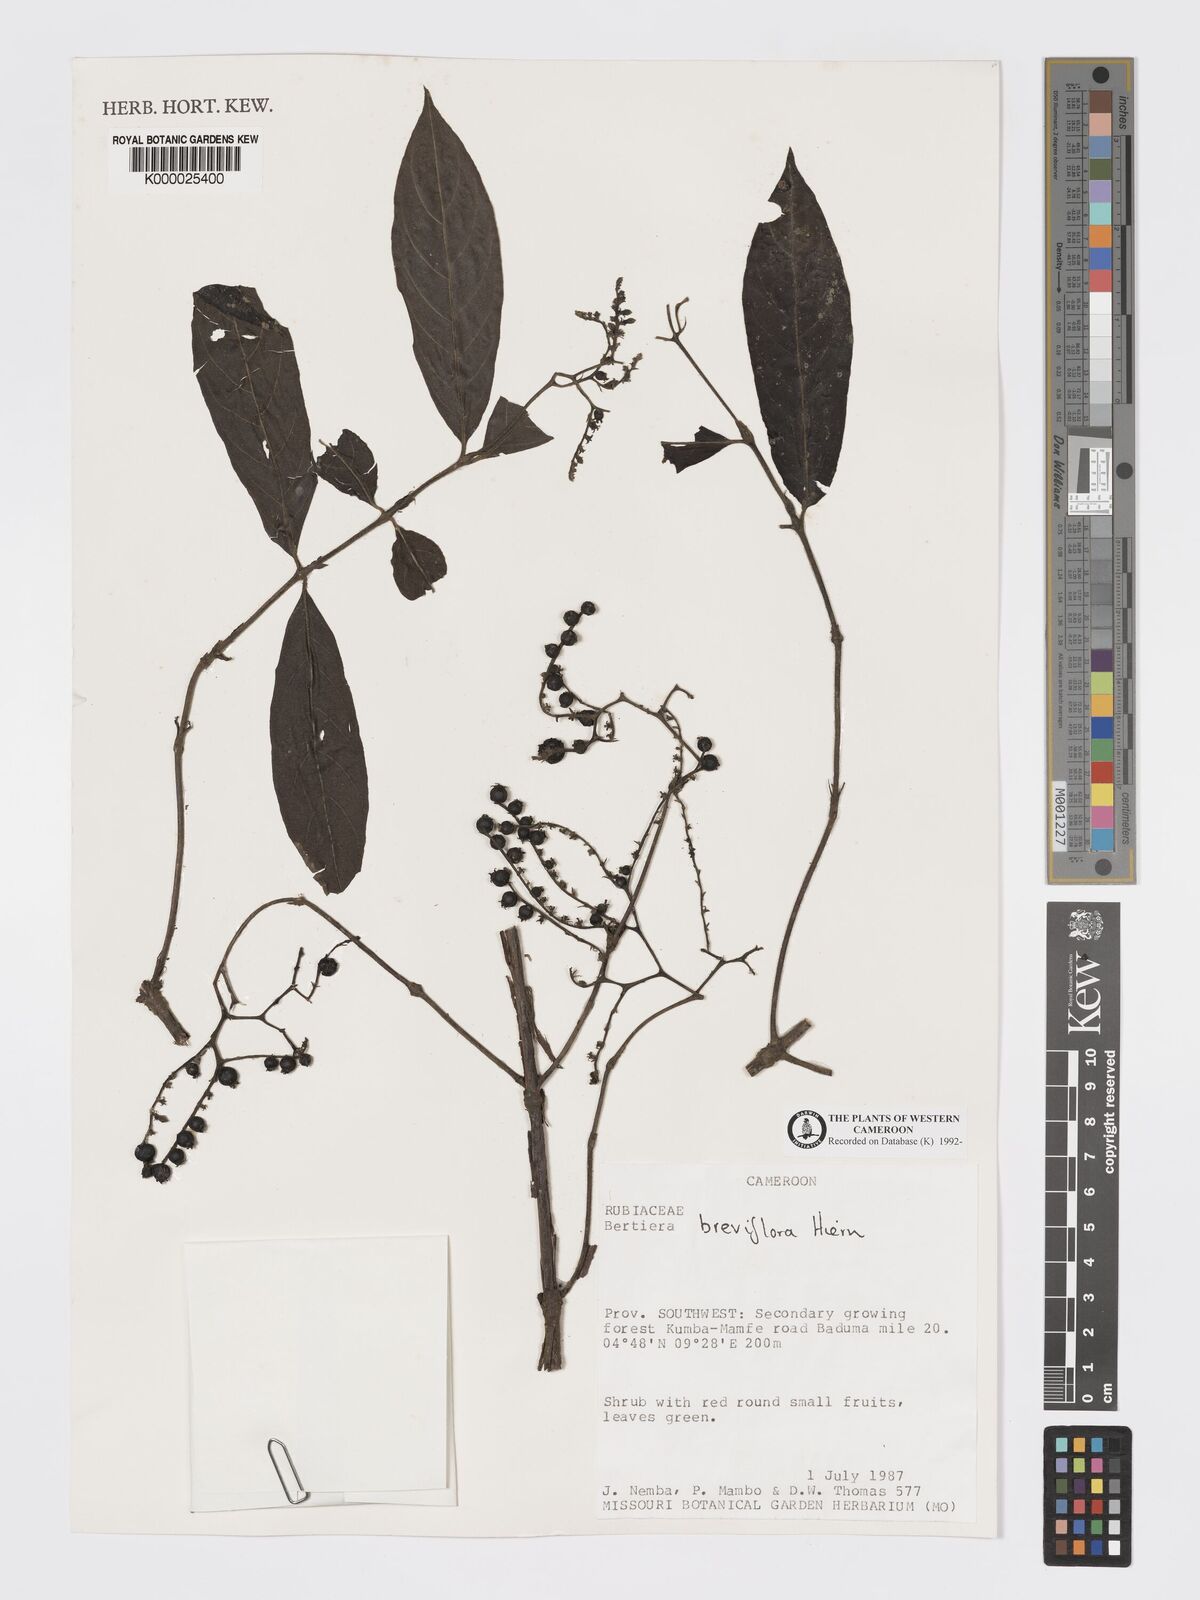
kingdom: Plantae
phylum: Tracheophyta
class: Magnoliopsida
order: Gentianales
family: Rubiaceae
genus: Bertiera
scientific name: Bertiera breviflora
